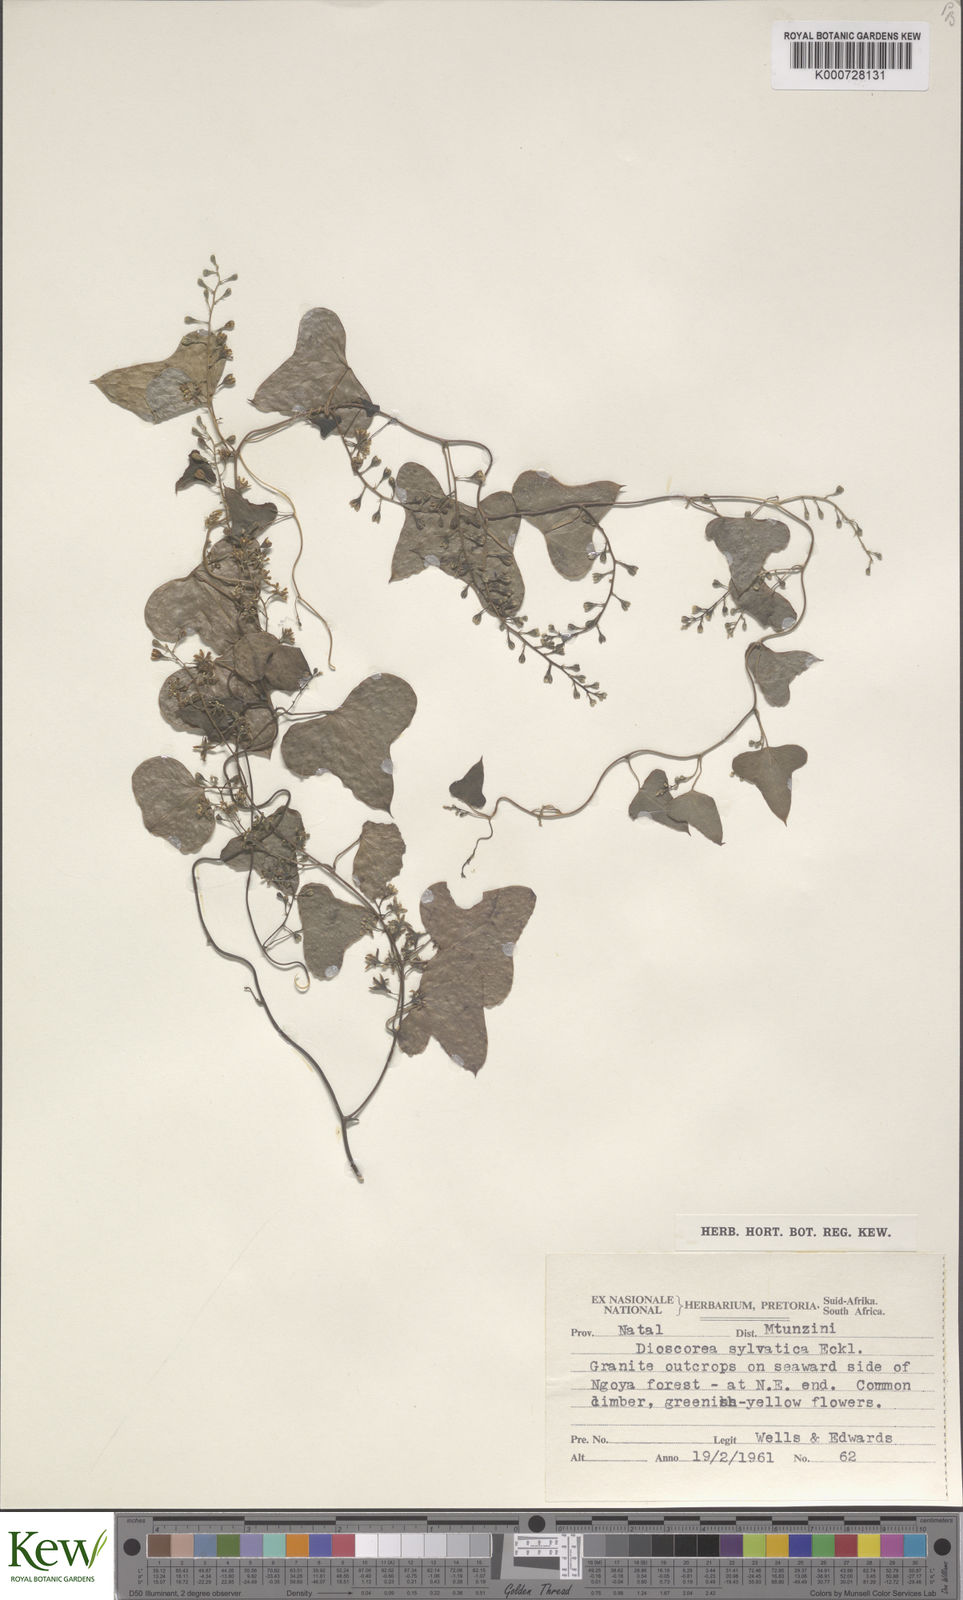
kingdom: Plantae
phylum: Tracheophyta
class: Liliopsida
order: Dioscoreales
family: Dioscoreaceae
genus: Dioscorea
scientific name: Dioscorea sylvatica
